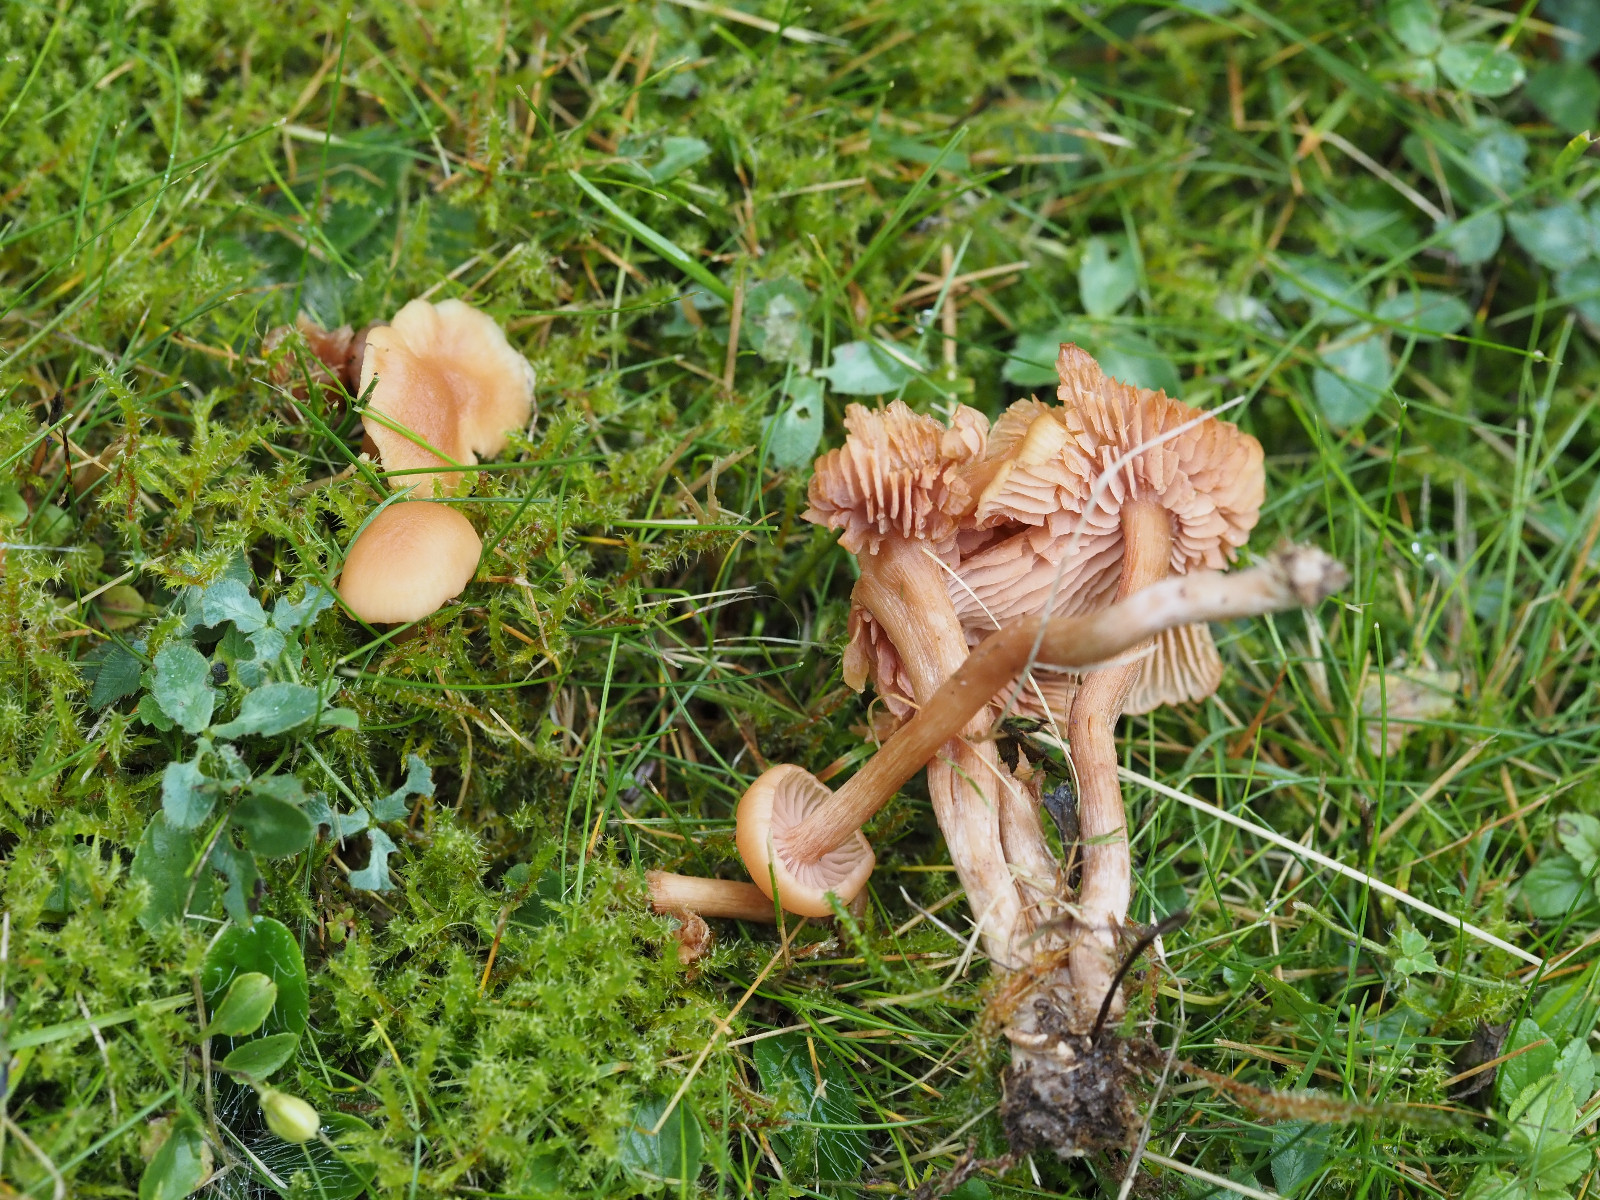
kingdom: Fungi
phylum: Basidiomycota
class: Agaricomycetes
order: Agaricales
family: Hydnangiaceae
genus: Laccaria
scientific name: Laccaria laccata
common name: rød ametysthat
